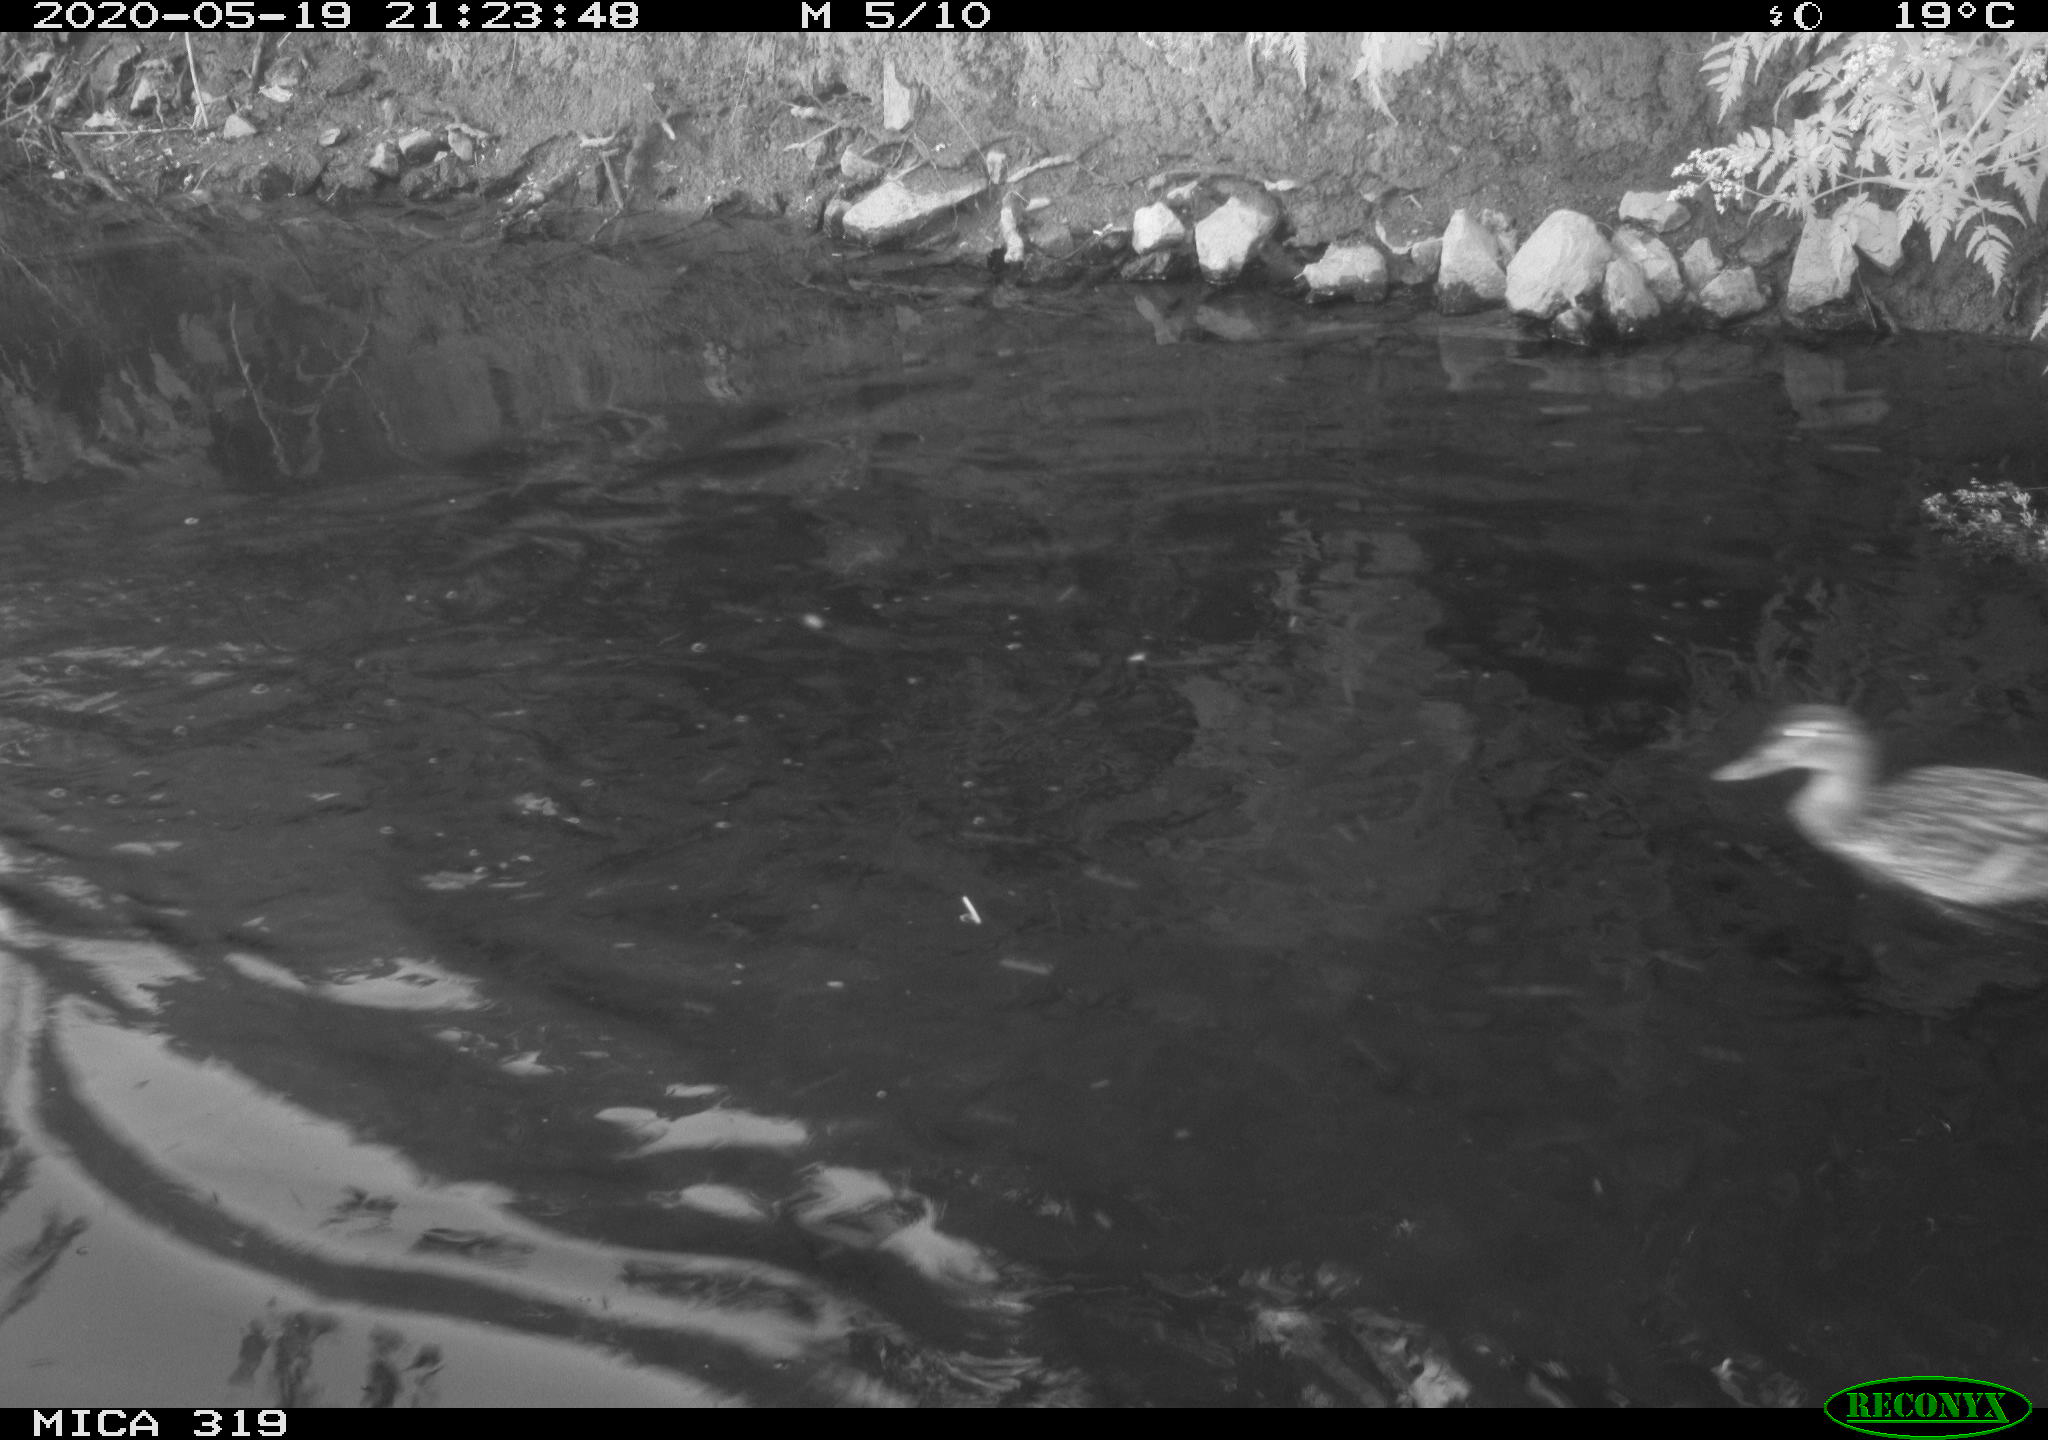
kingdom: Animalia
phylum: Chordata
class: Aves
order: Anseriformes
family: Anatidae
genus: Anas
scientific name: Anas platyrhynchos
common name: Mallard
